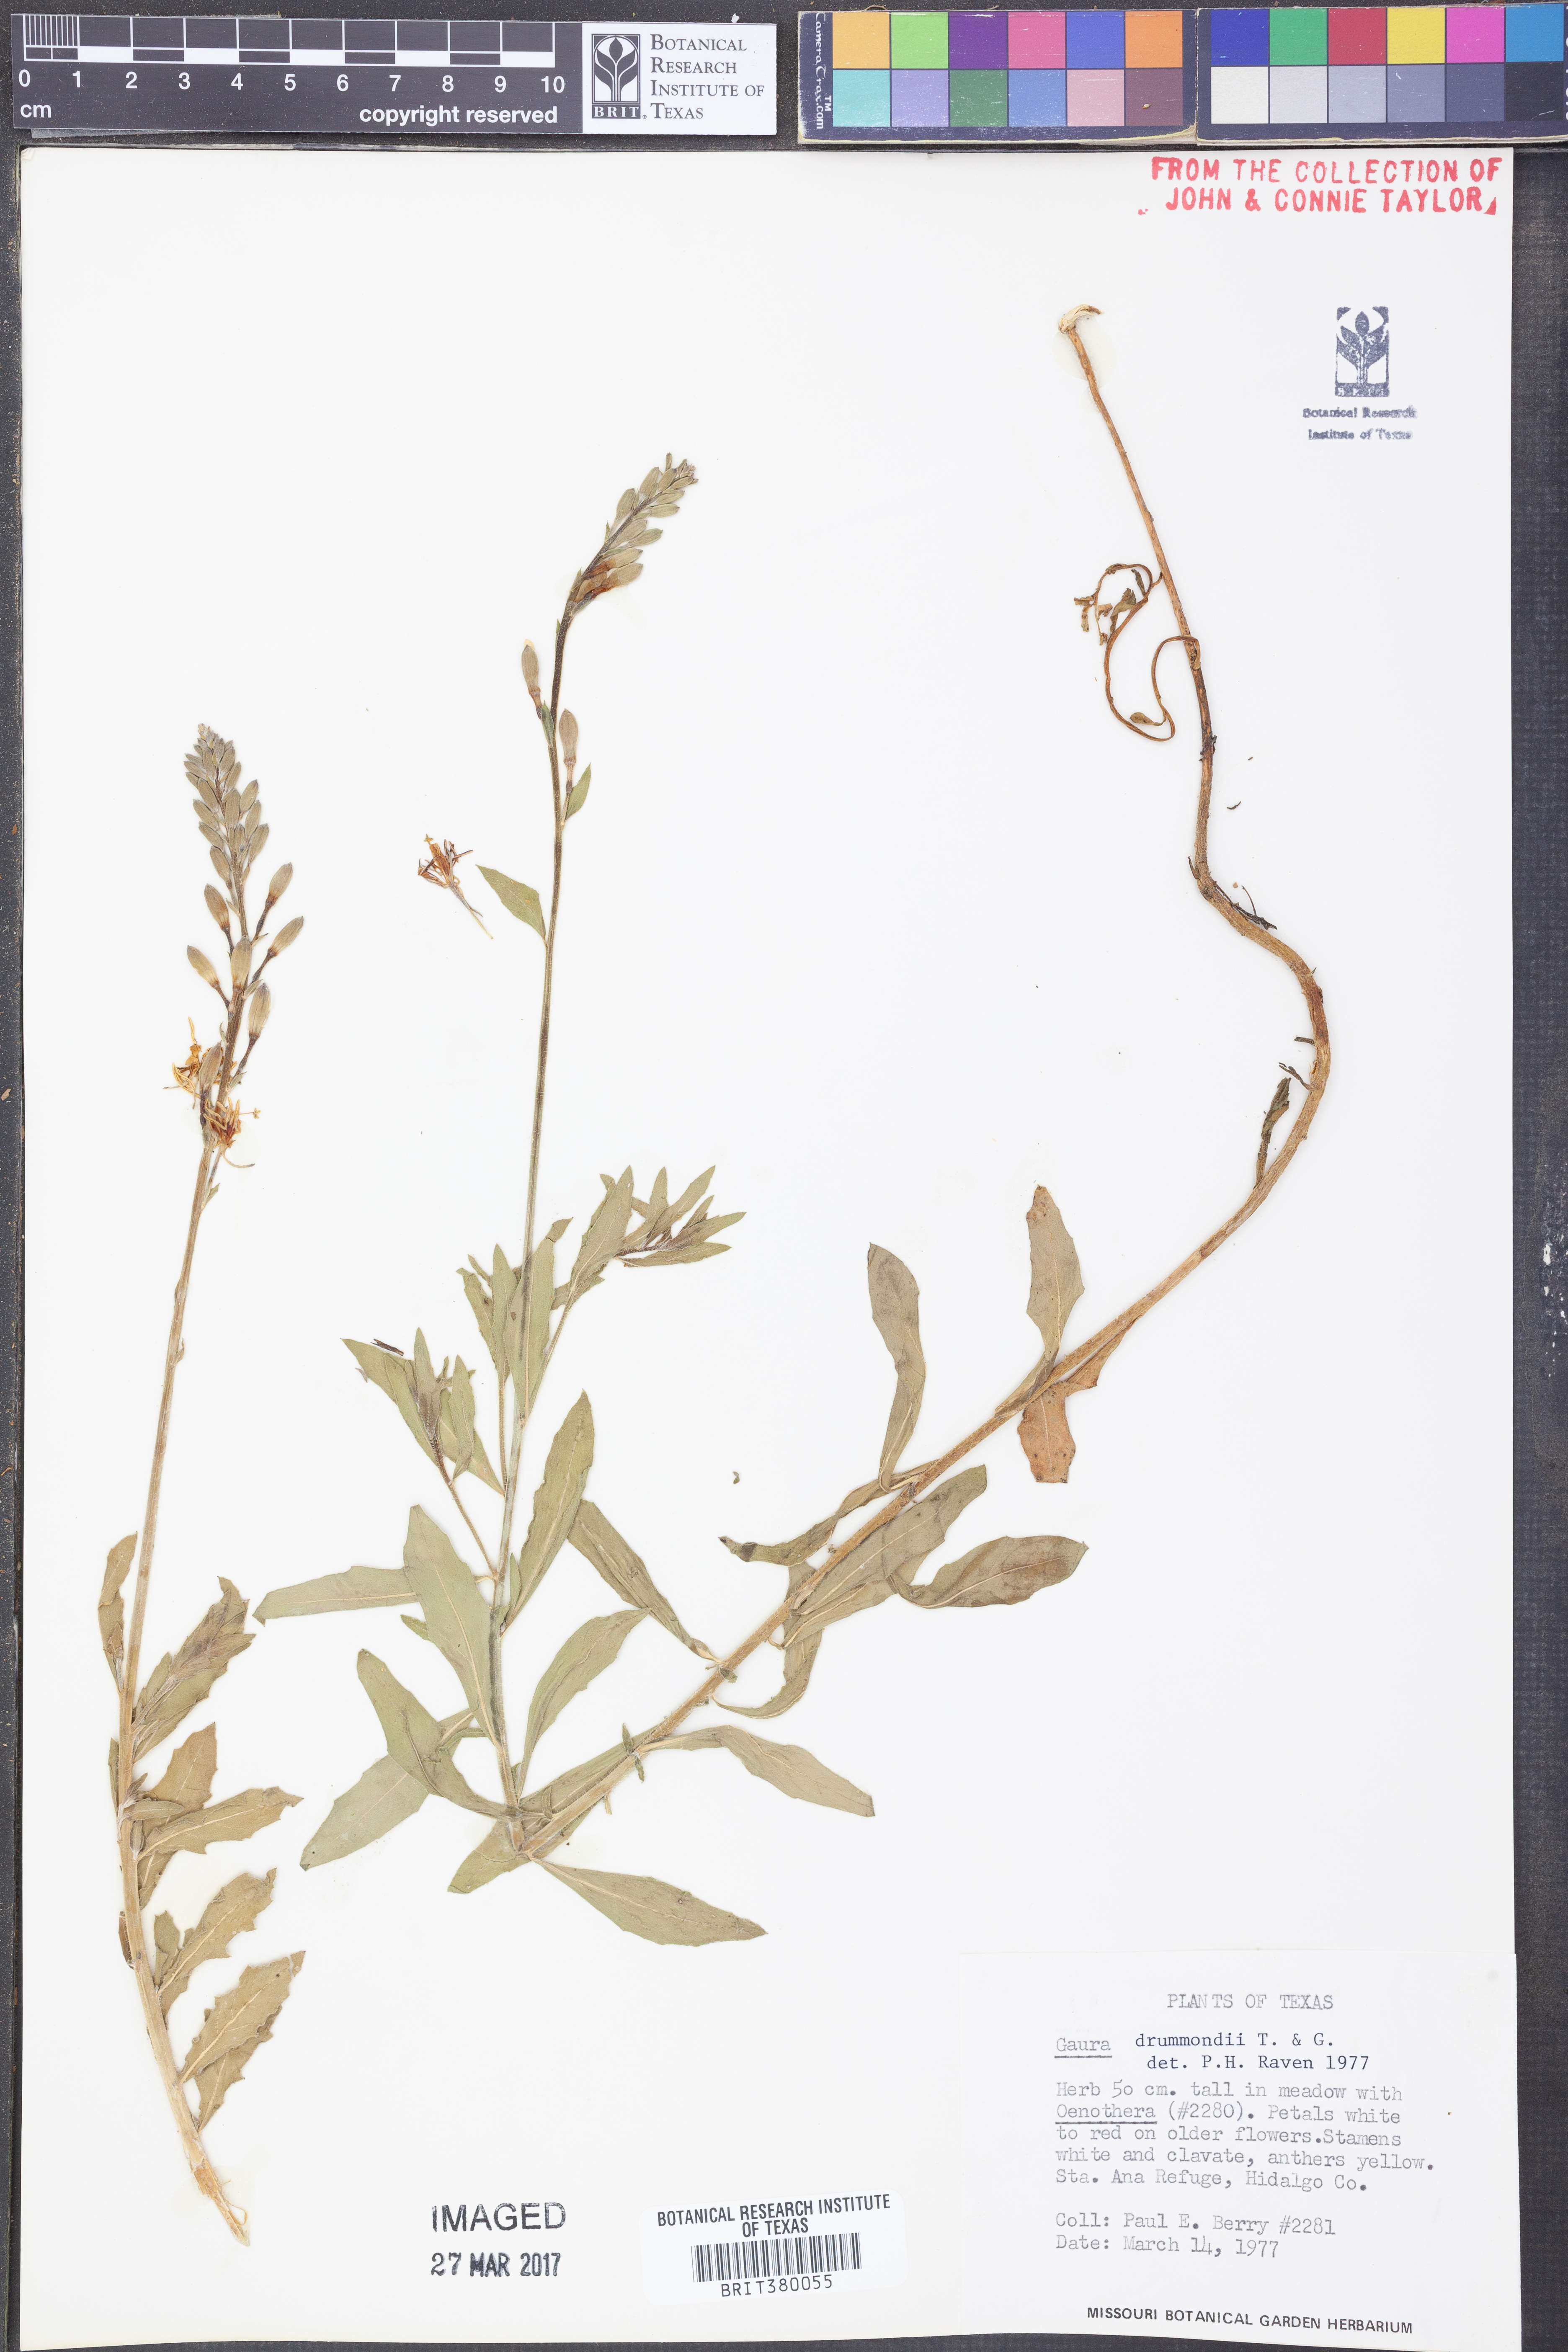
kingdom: Plantae
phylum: Tracheophyta
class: Magnoliopsida
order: Myrtales
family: Onagraceae
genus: Oenothera
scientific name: Oenothera hispida
